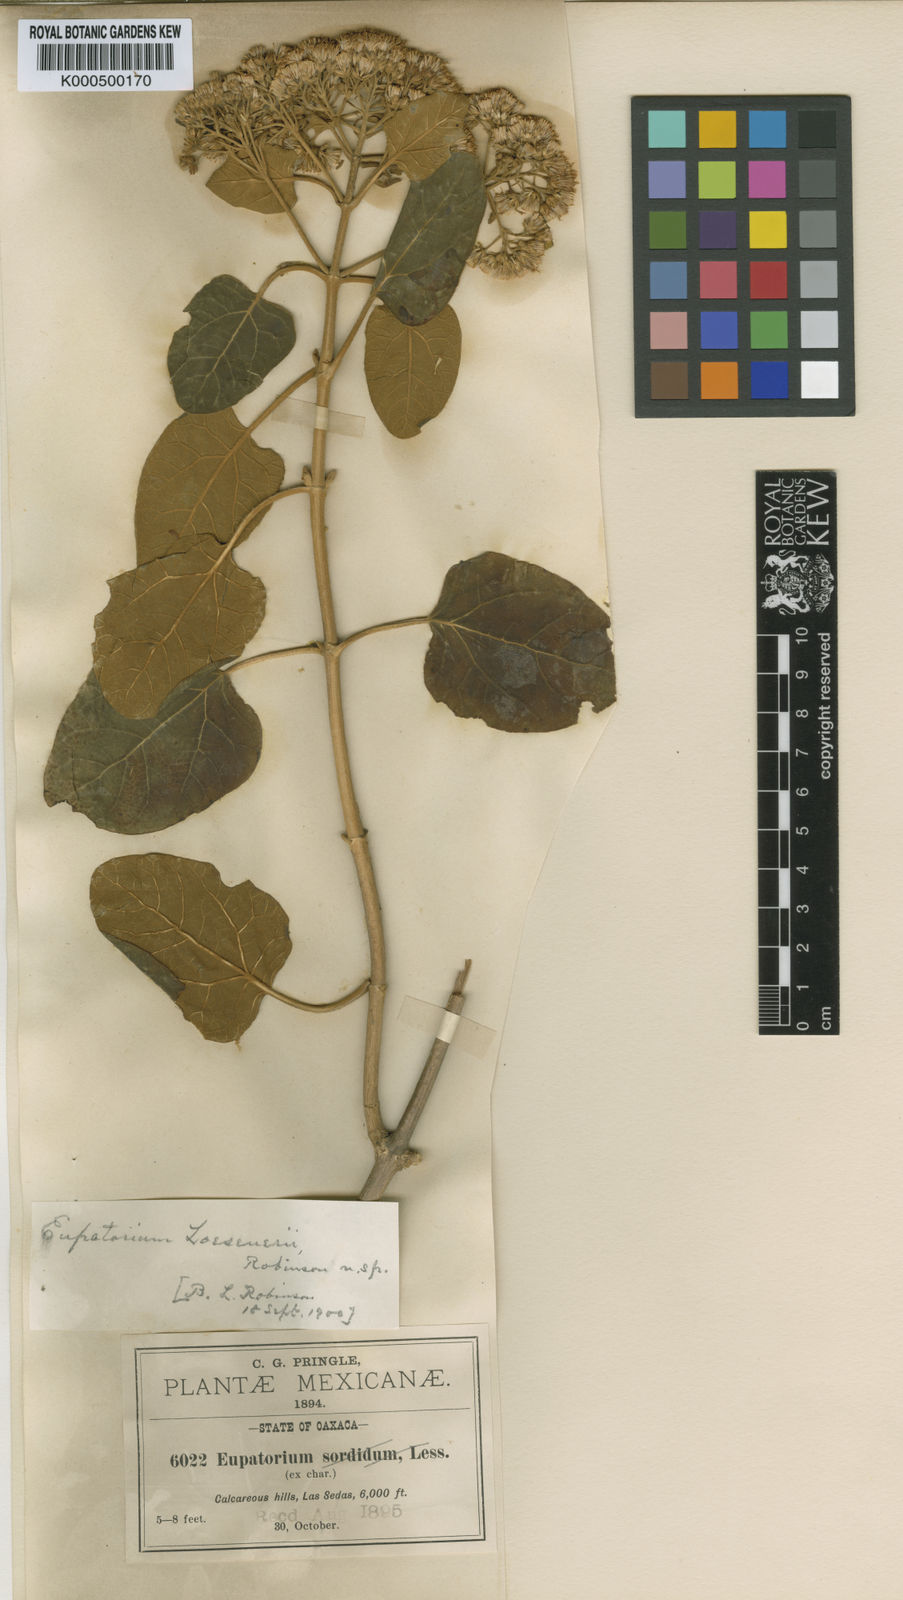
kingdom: Plantae
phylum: Tracheophyta
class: Magnoliopsida
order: Asterales
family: Asteraceae
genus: Ageratina
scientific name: Ageratina tomentella
